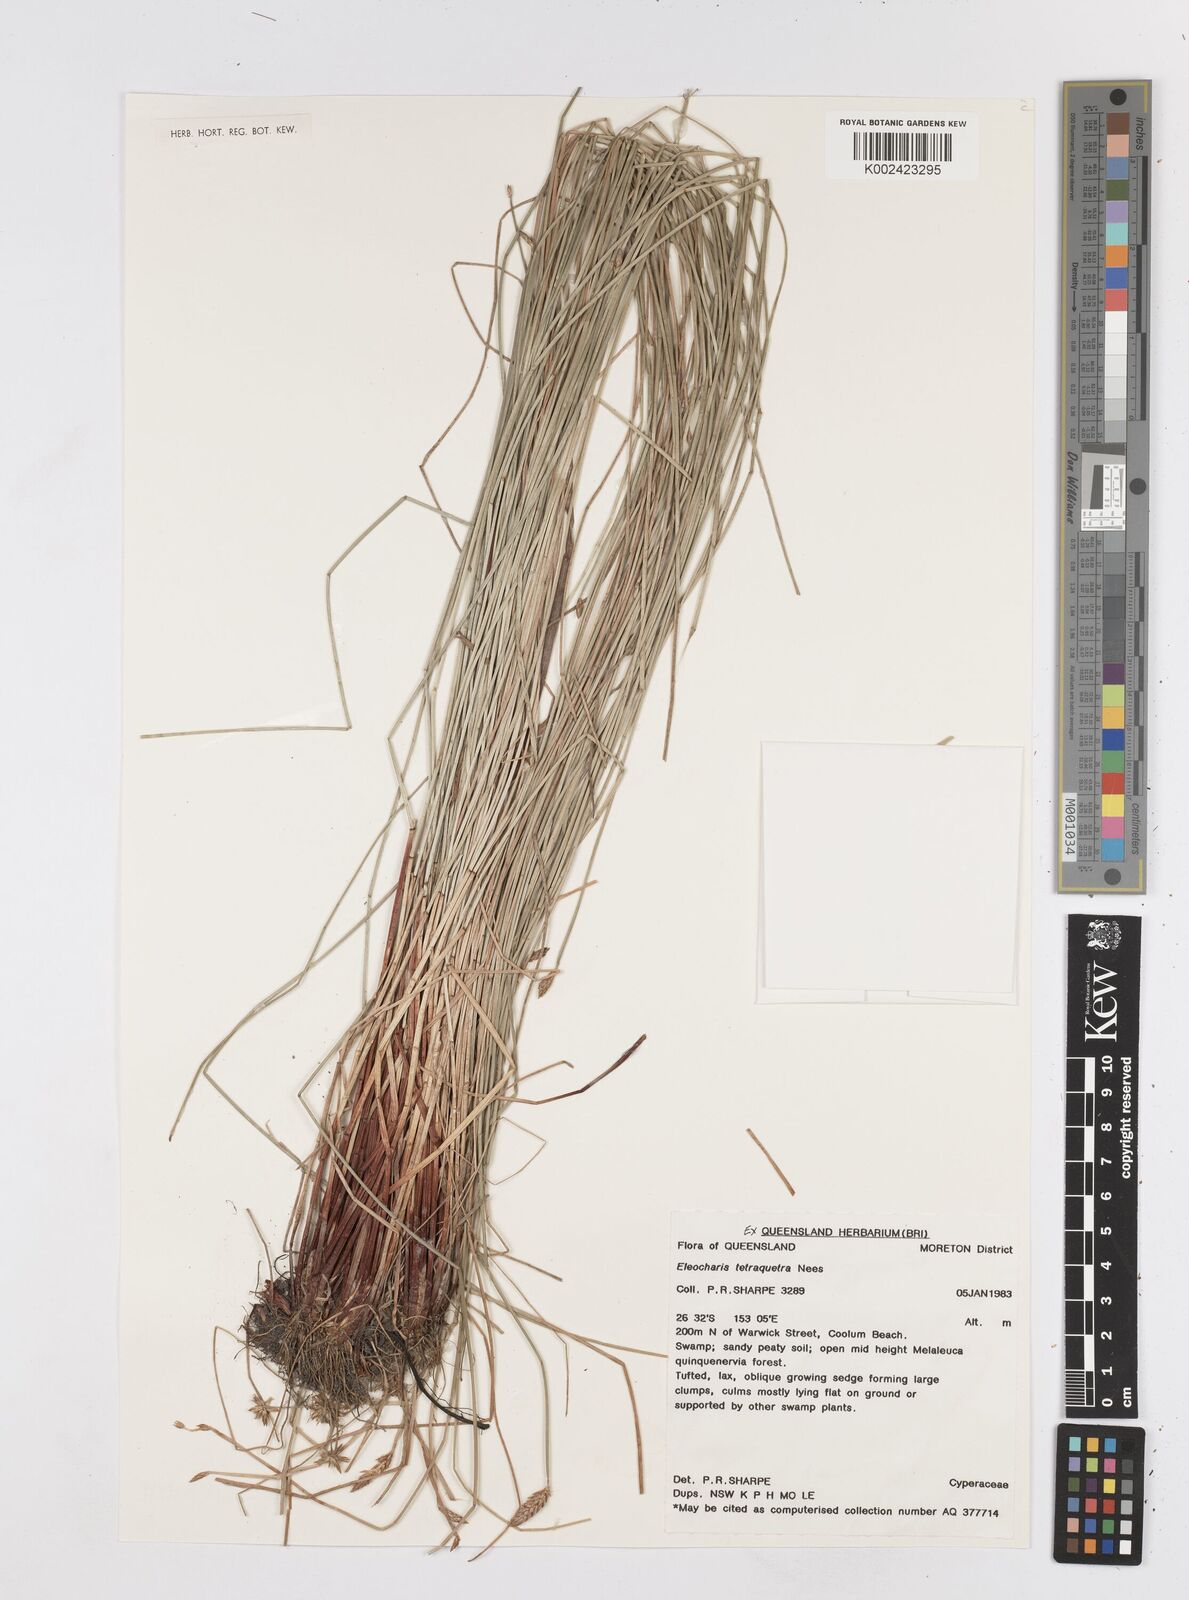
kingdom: Plantae
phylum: Tracheophyta
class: Liliopsida
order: Poales
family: Cyperaceae
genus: Eleocharis
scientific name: Eleocharis tetraquetra
